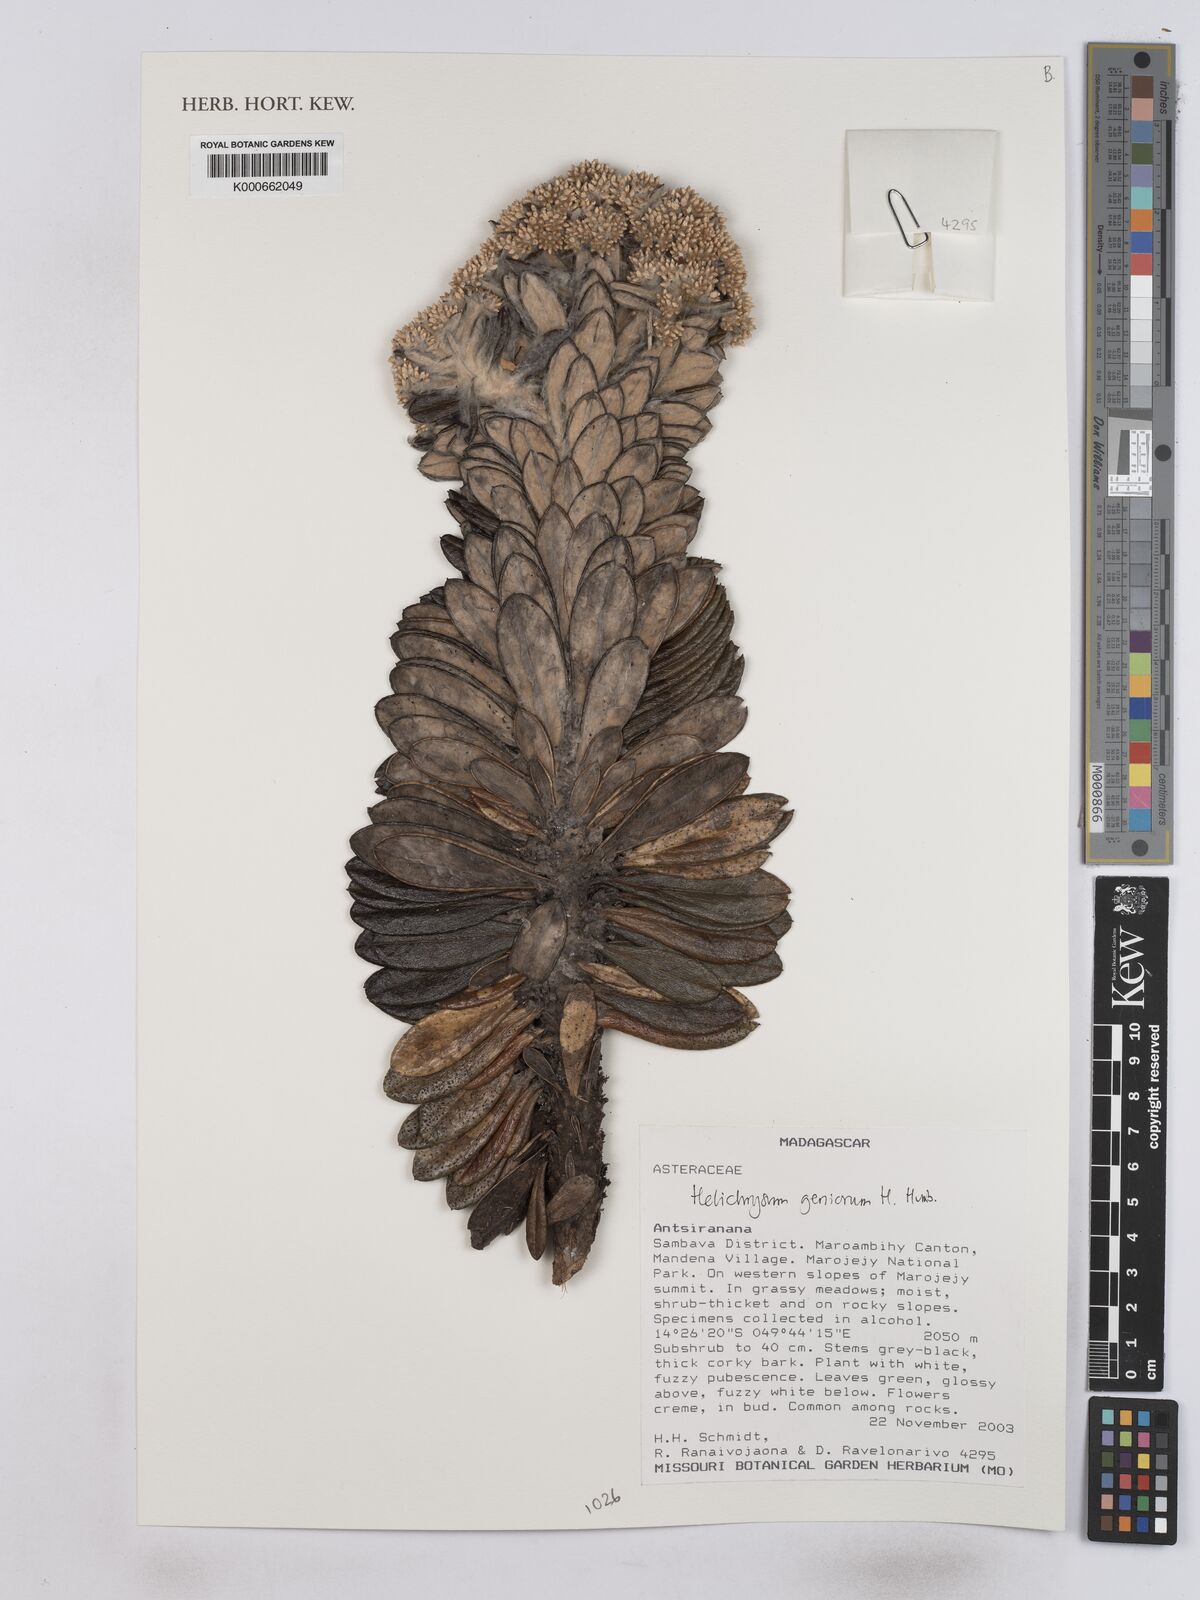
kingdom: Plantae
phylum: Tracheophyta
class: Magnoliopsida
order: Asterales
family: Asteraceae
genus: Helichrysum
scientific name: Helichrysum geniorum
